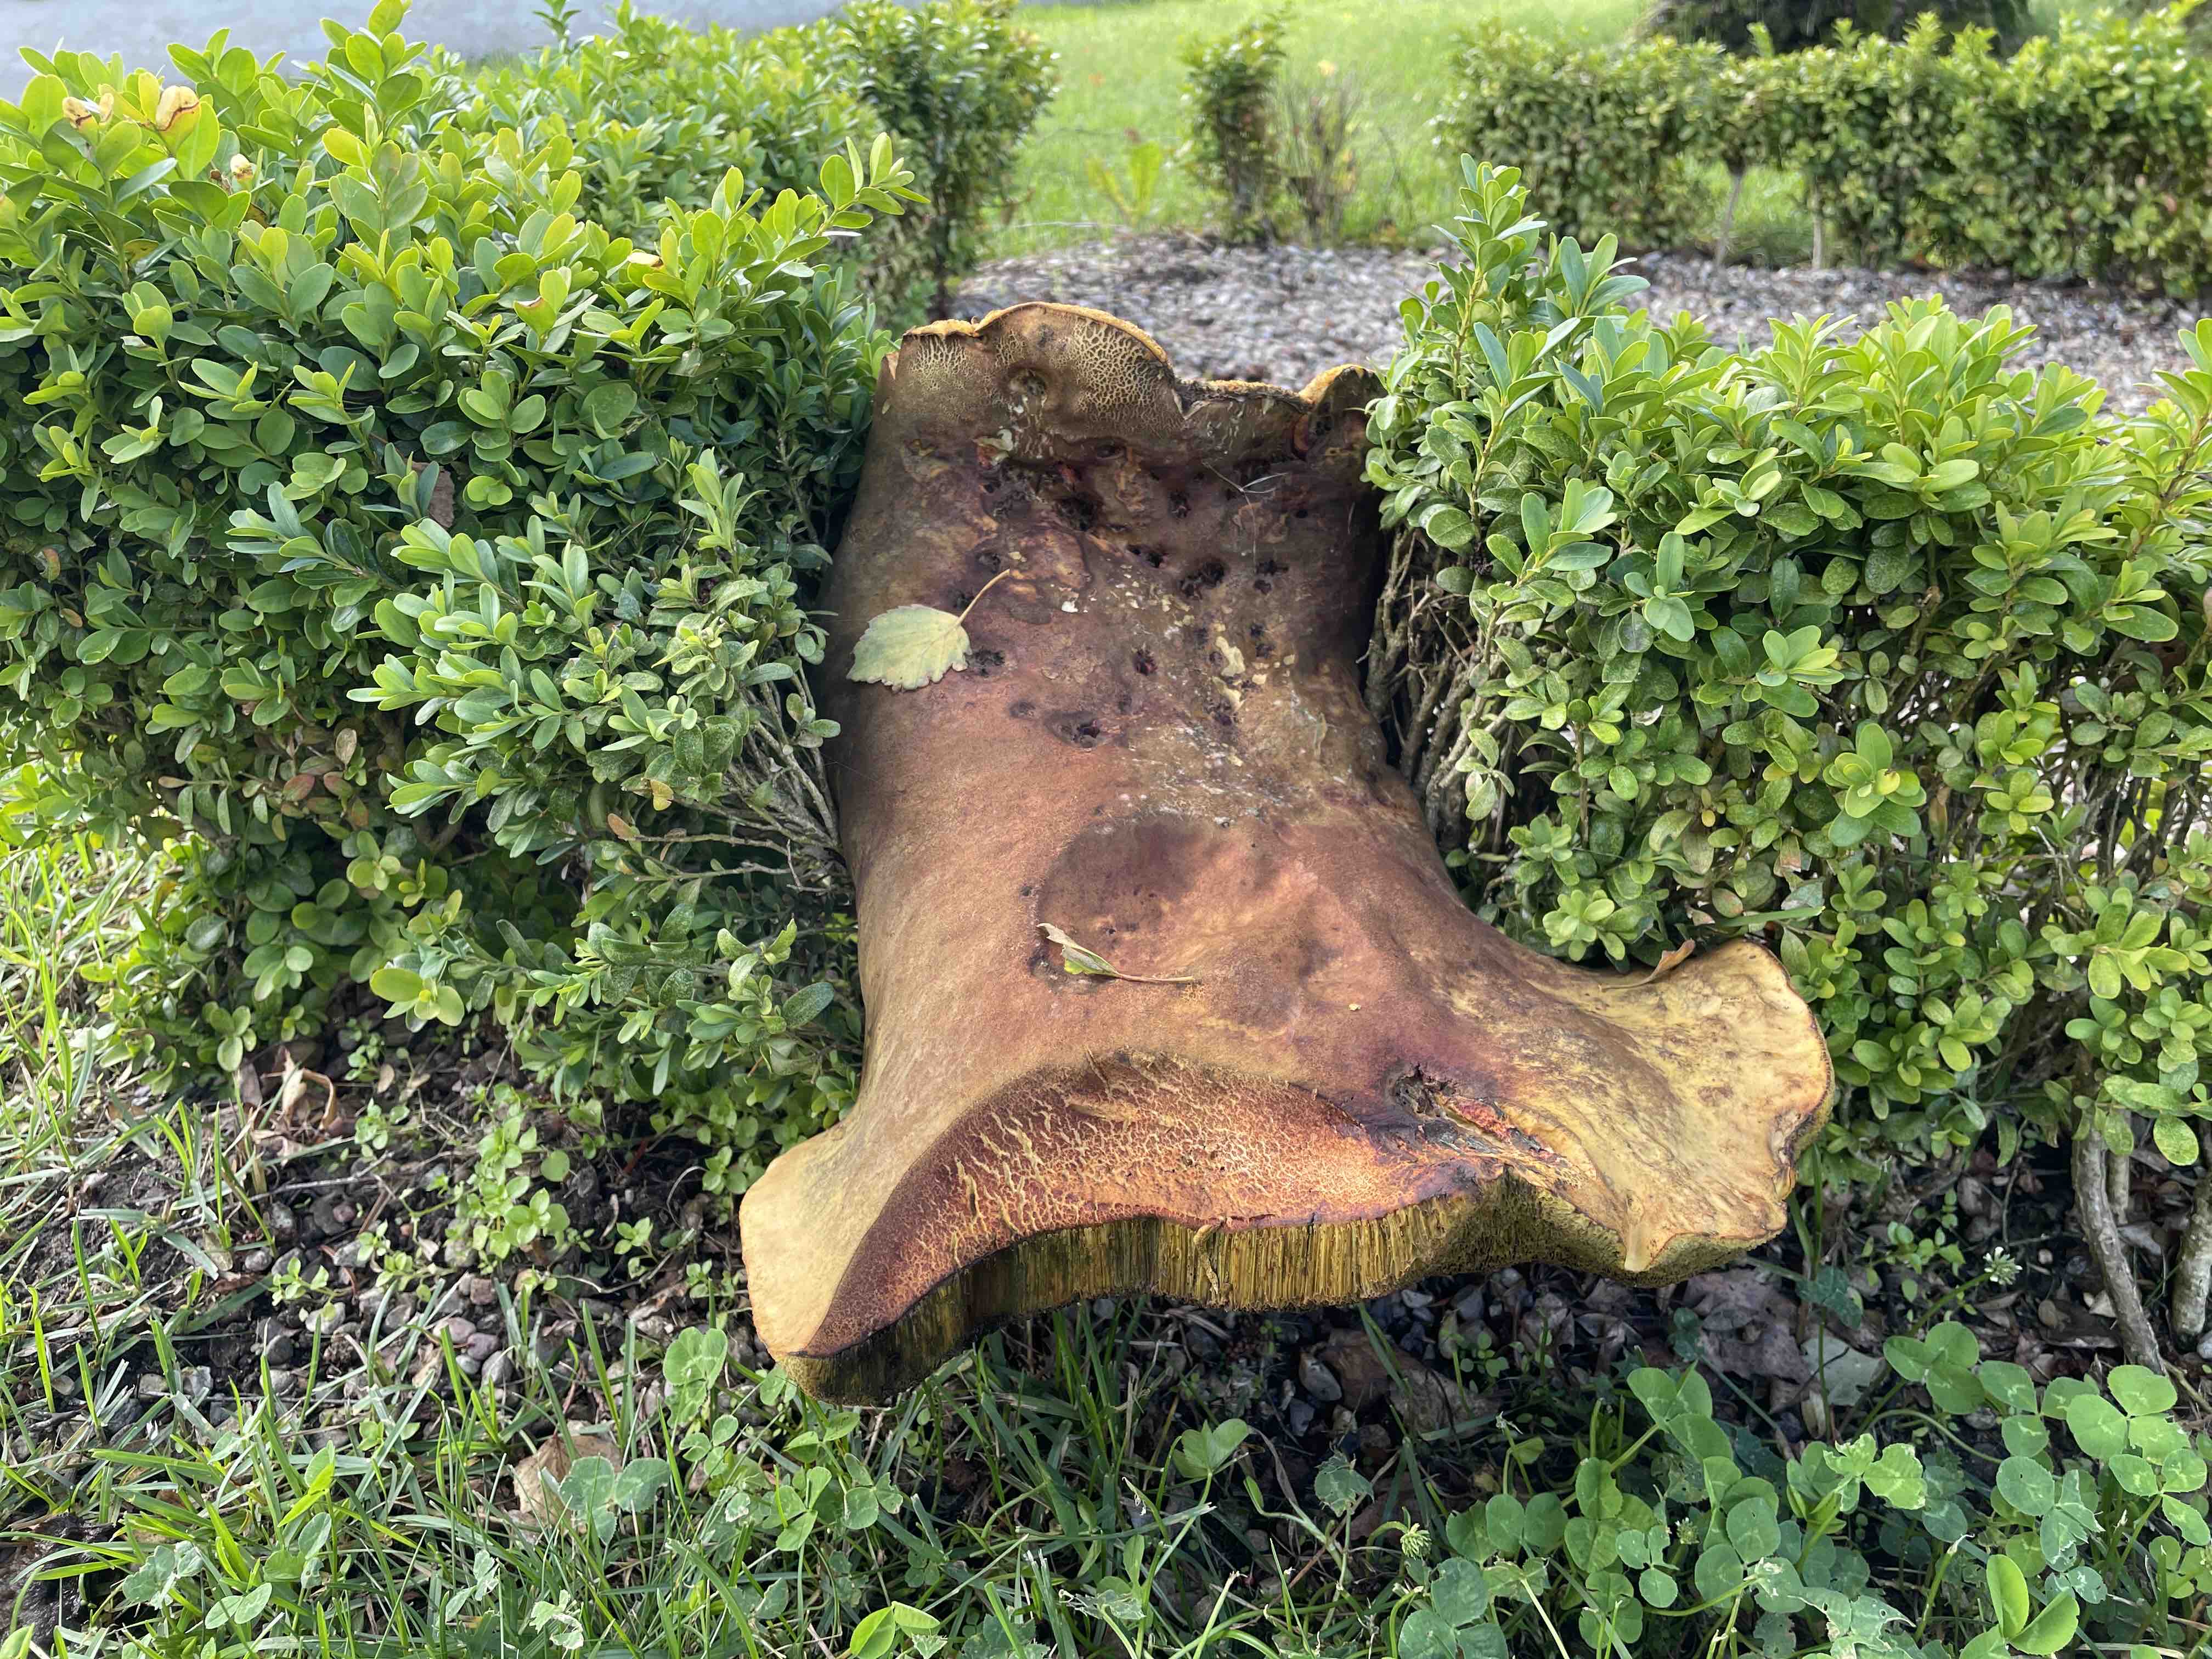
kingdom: Fungi
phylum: Basidiomycota
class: Agaricomycetes
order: Boletales
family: Boletaceae
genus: Suillellus
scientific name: Suillellus luridus
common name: netstokket indigorørhat
